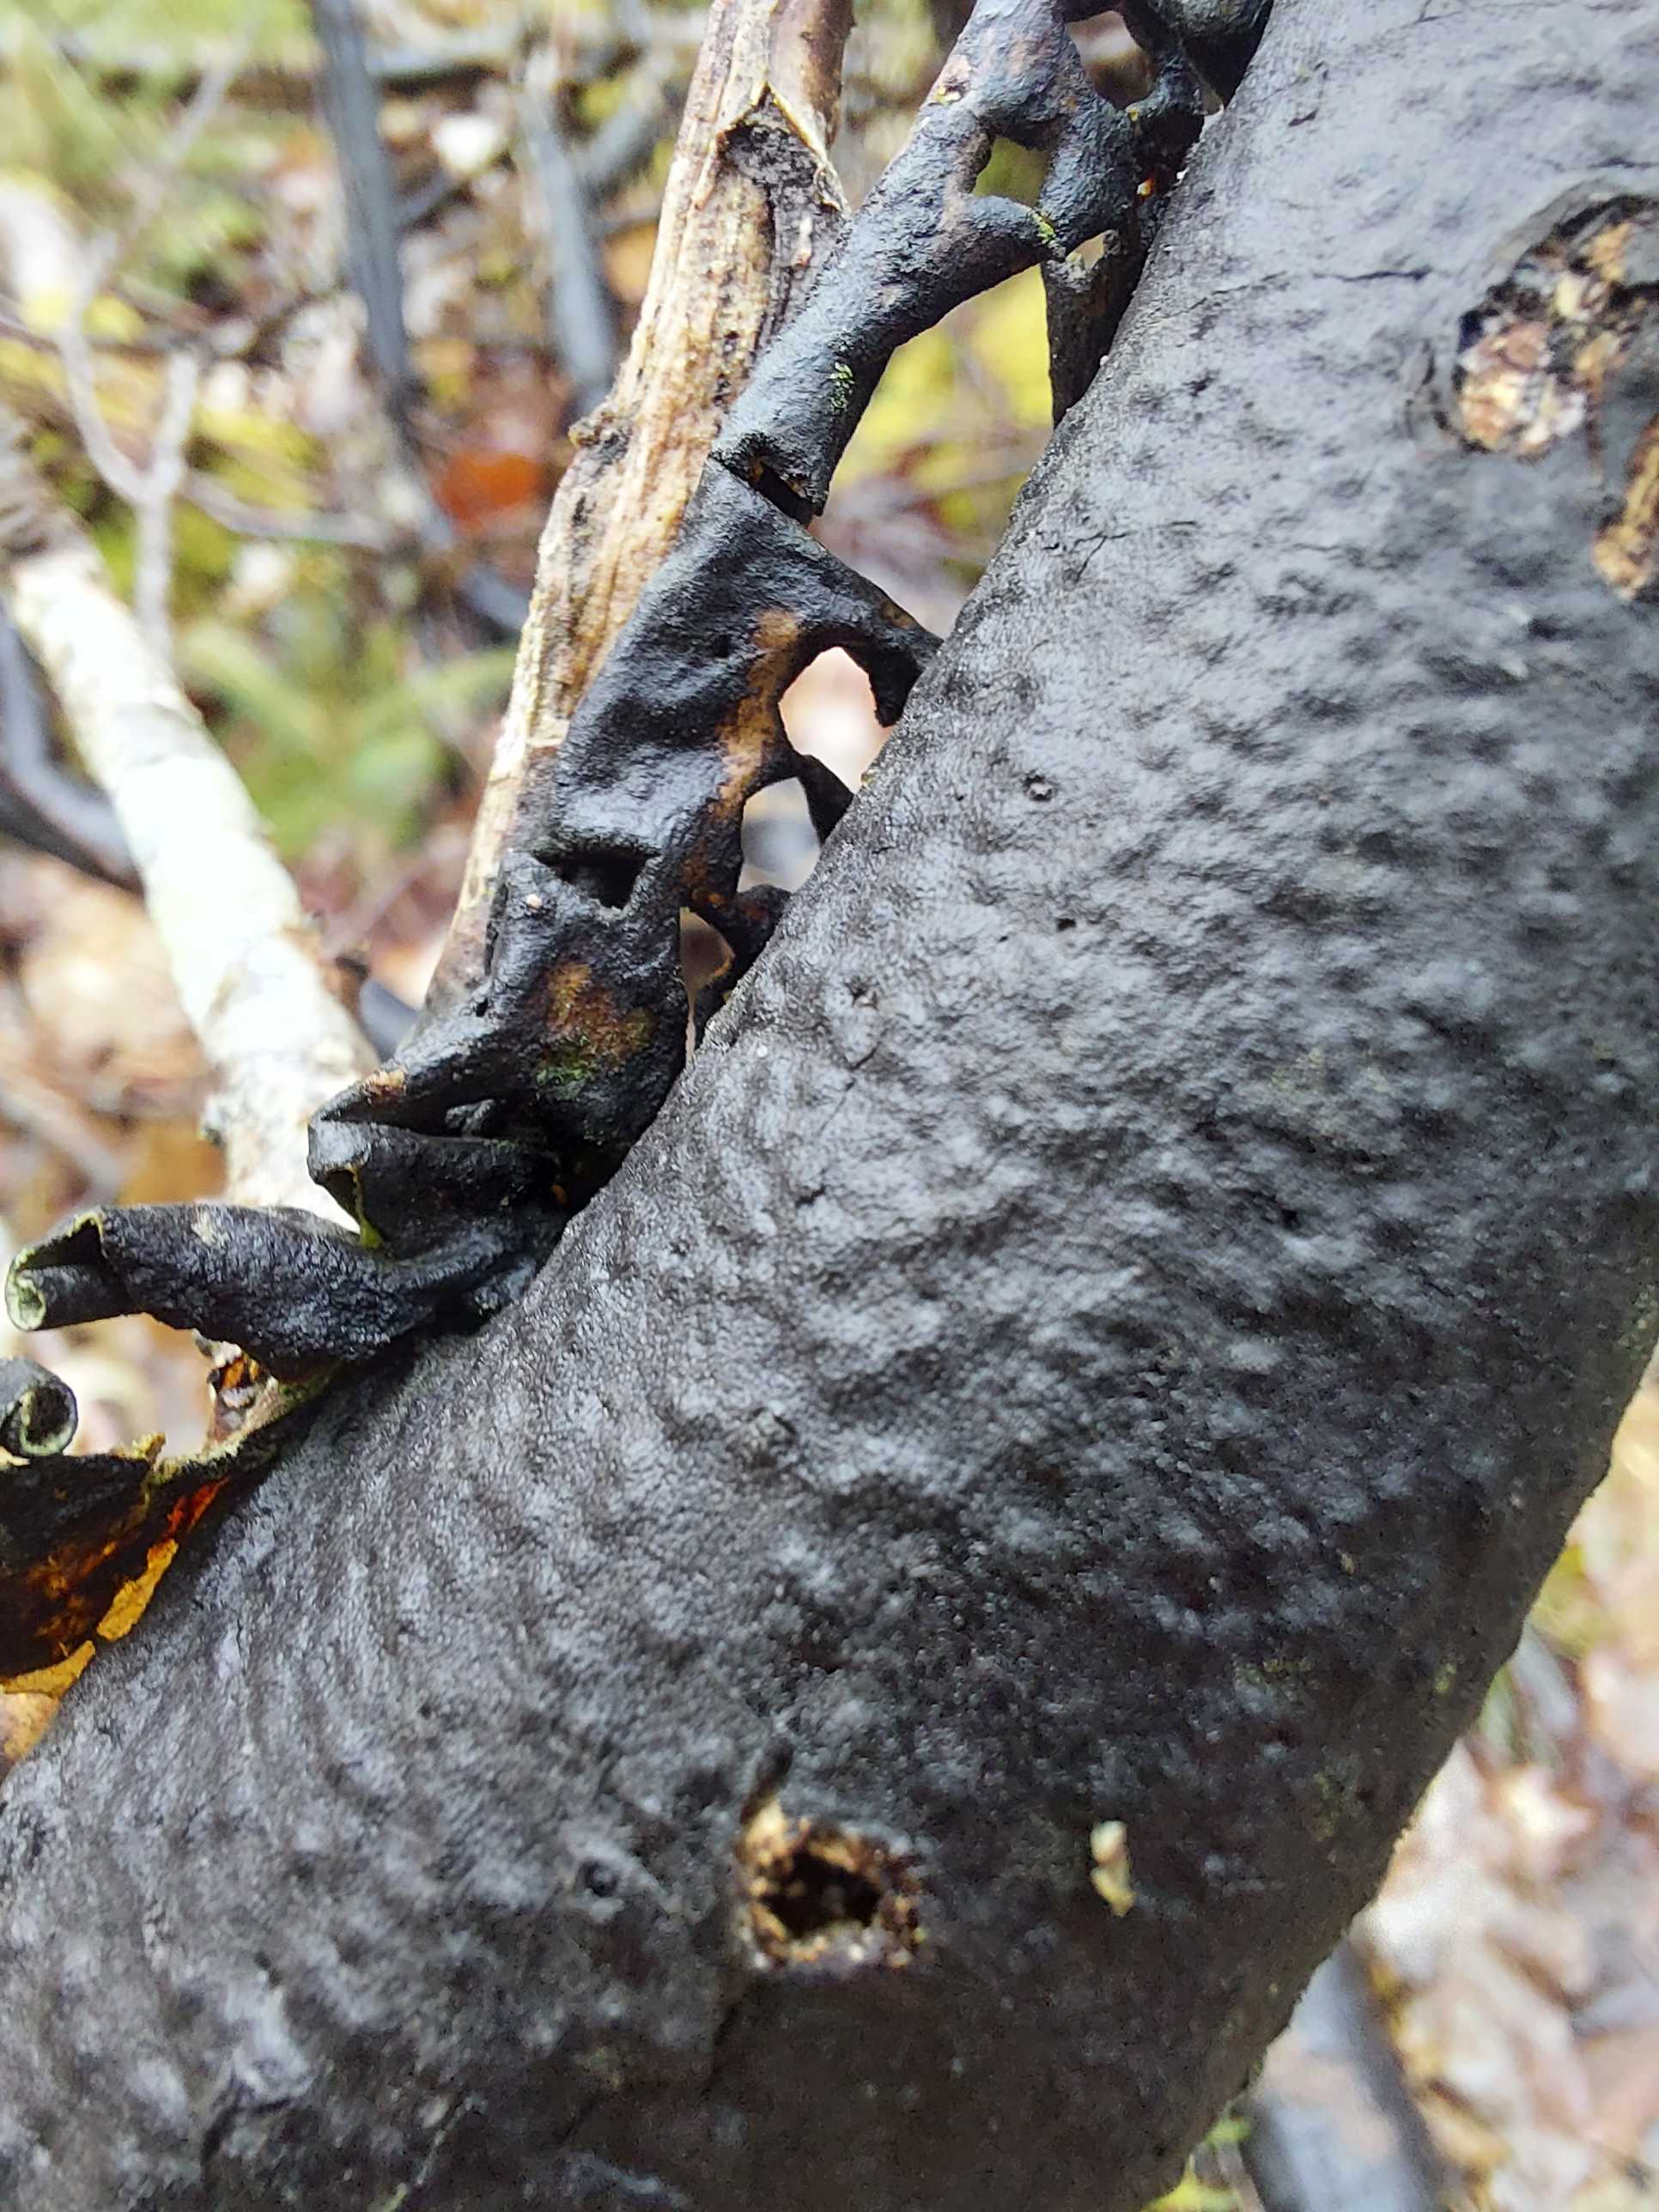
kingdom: Fungi
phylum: Ascomycota
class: Sordariomycetes
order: Xylariales
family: Diatrypaceae
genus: Diatrype
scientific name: Diatrype
